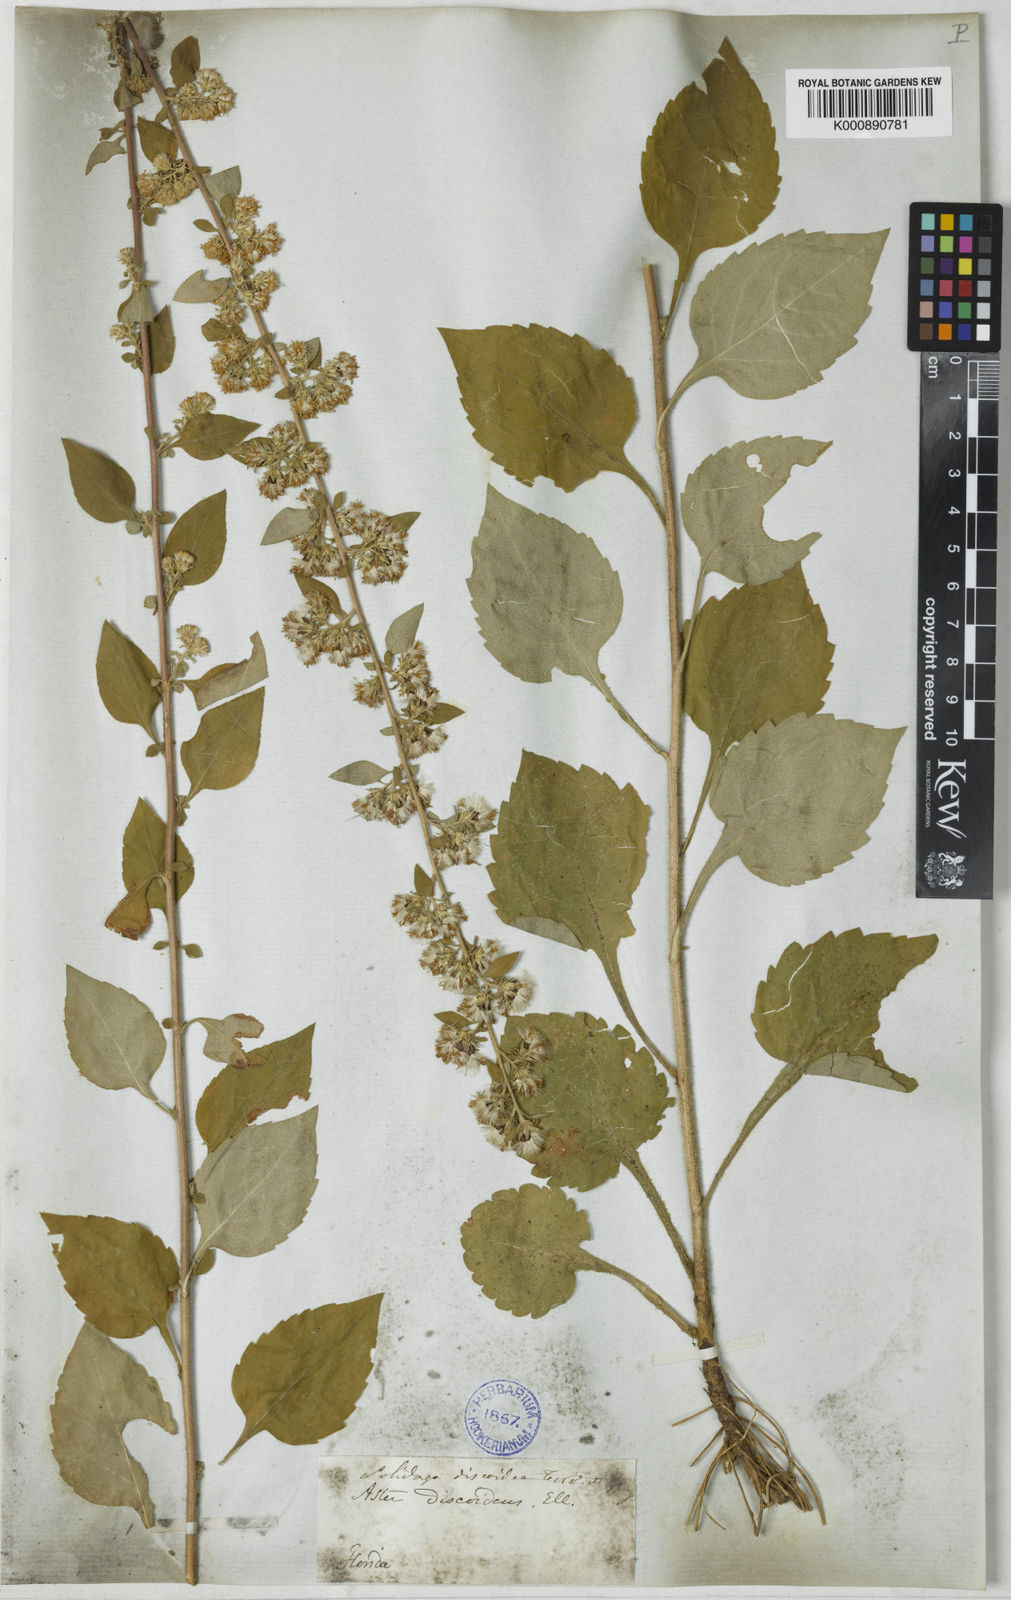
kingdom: Plantae
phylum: Tracheophyta
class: Magnoliopsida
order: Asterales
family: Asteraceae
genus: Solidago
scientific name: Solidago discoidea
